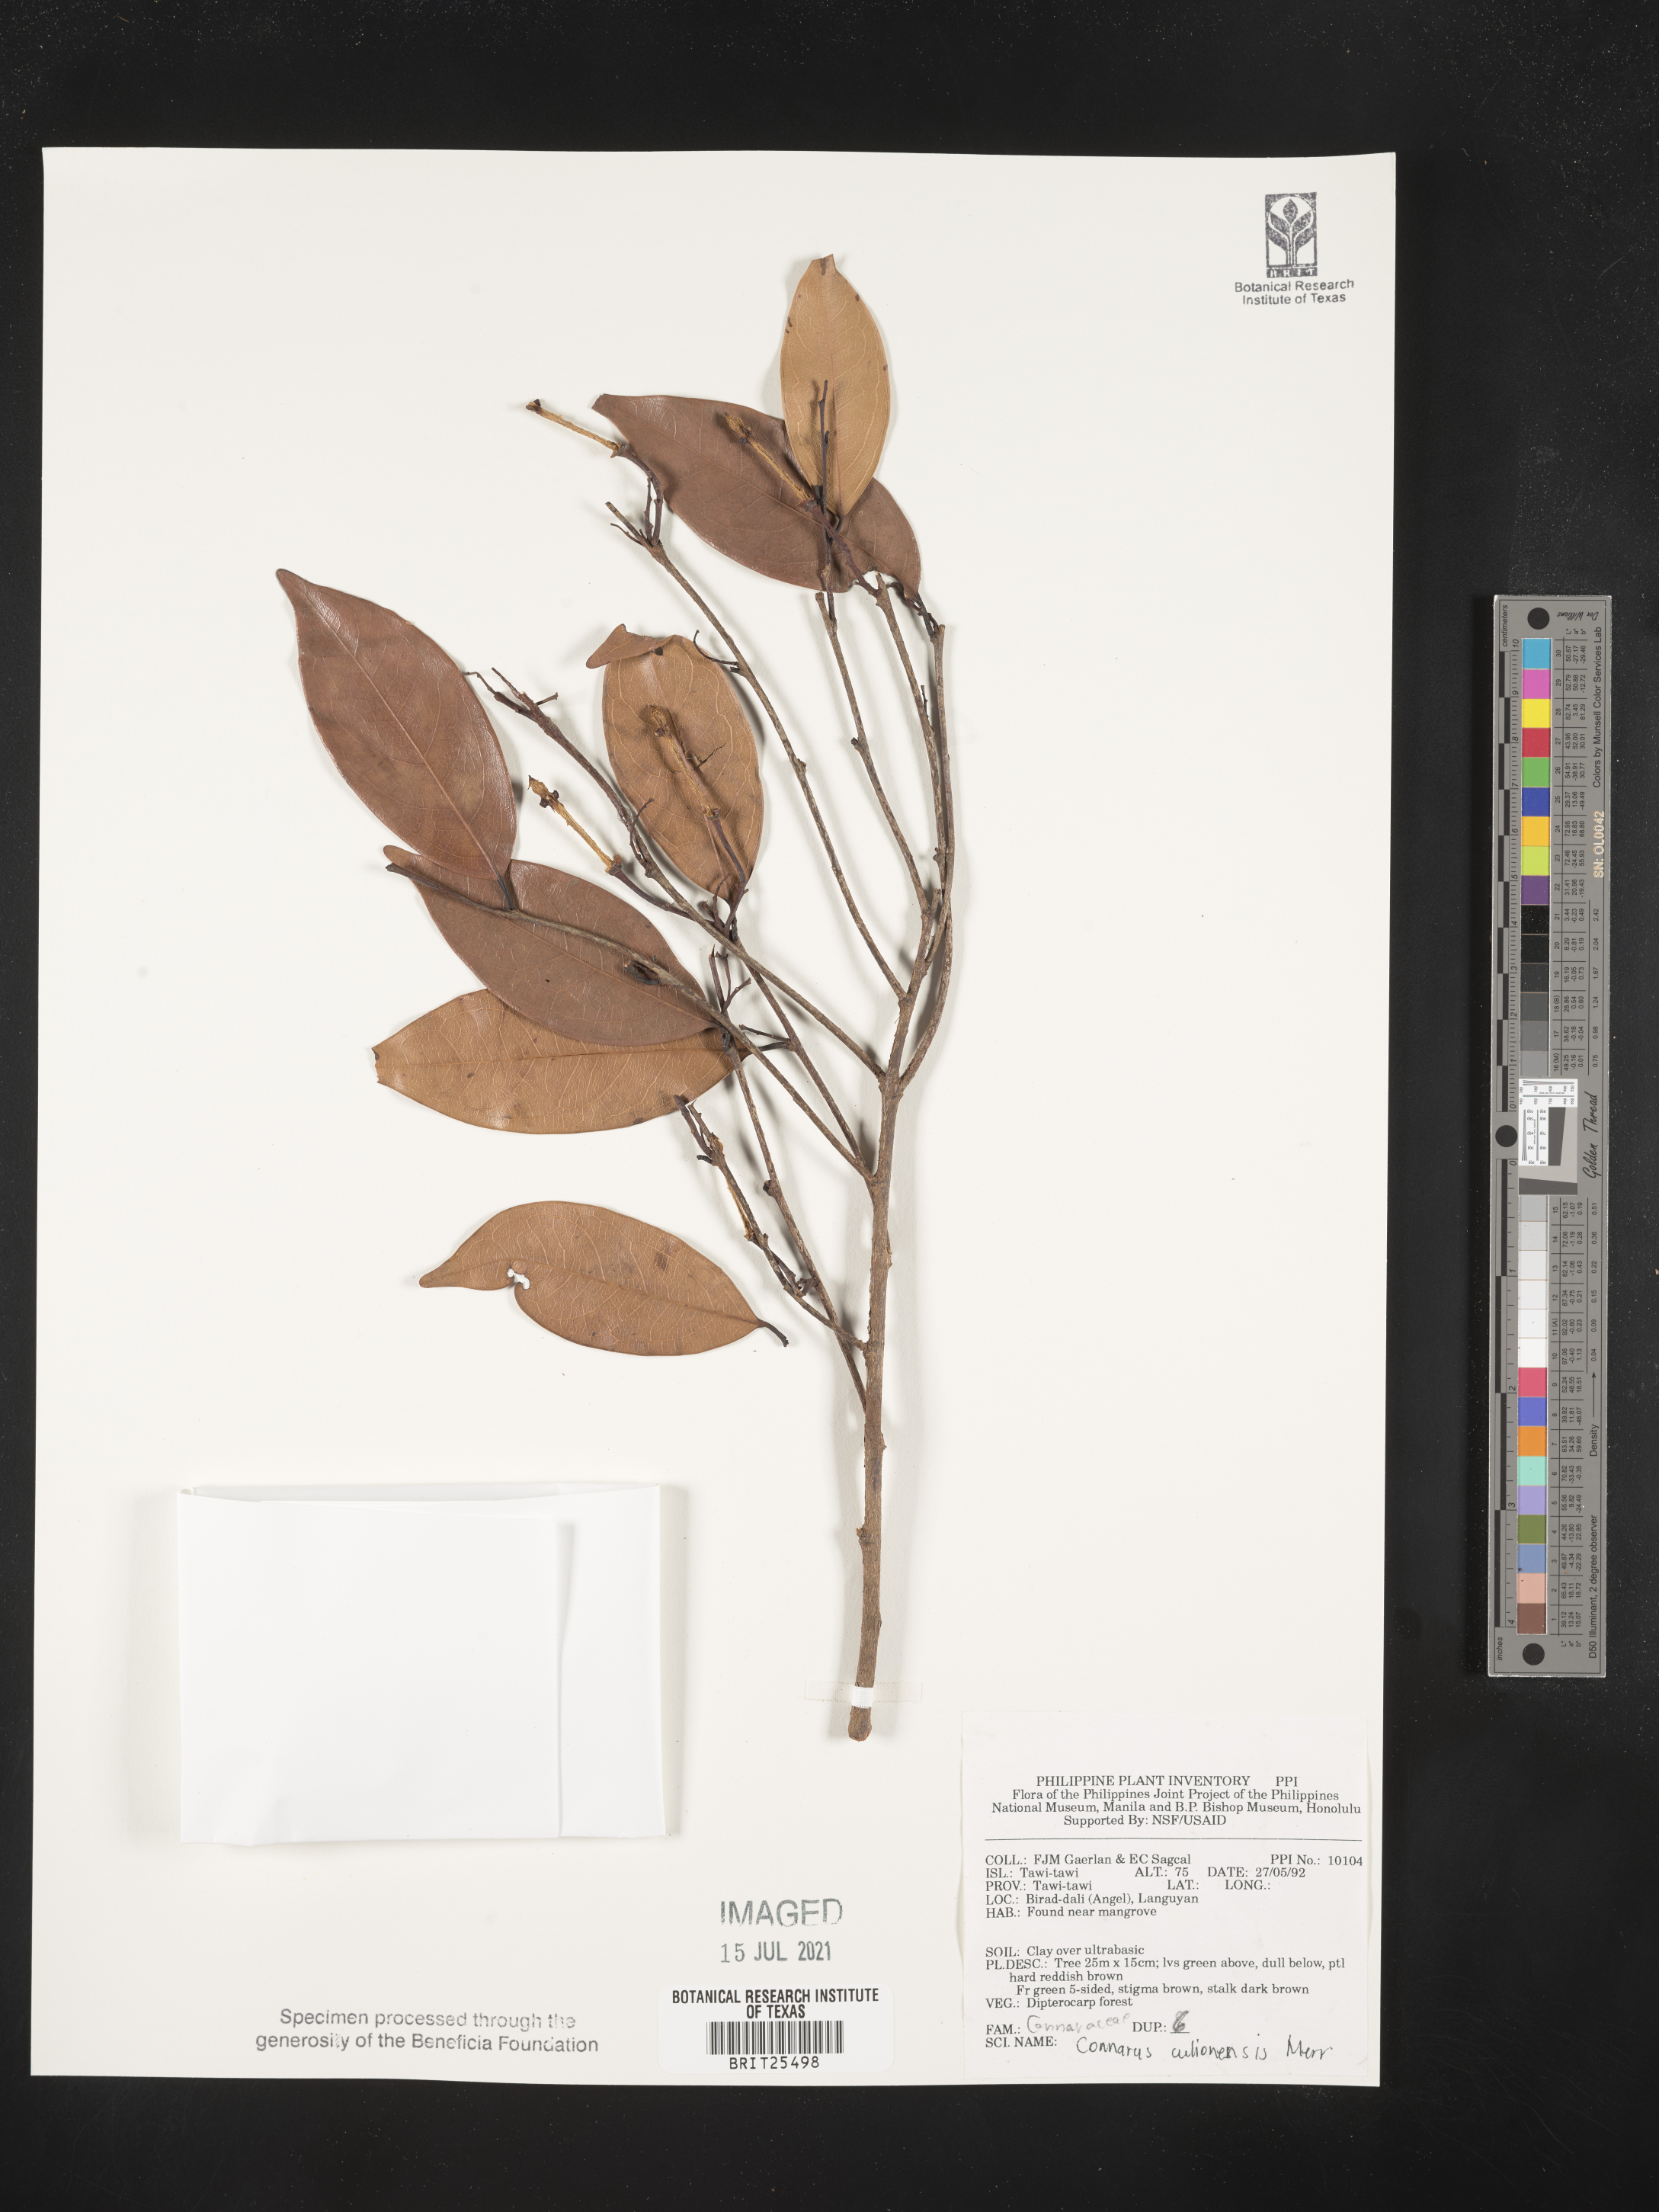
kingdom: Plantae
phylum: Tracheophyta
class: Magnoliopsida
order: Oxalidales
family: Connaraceae
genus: Connarus
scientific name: Connarus culionensis
